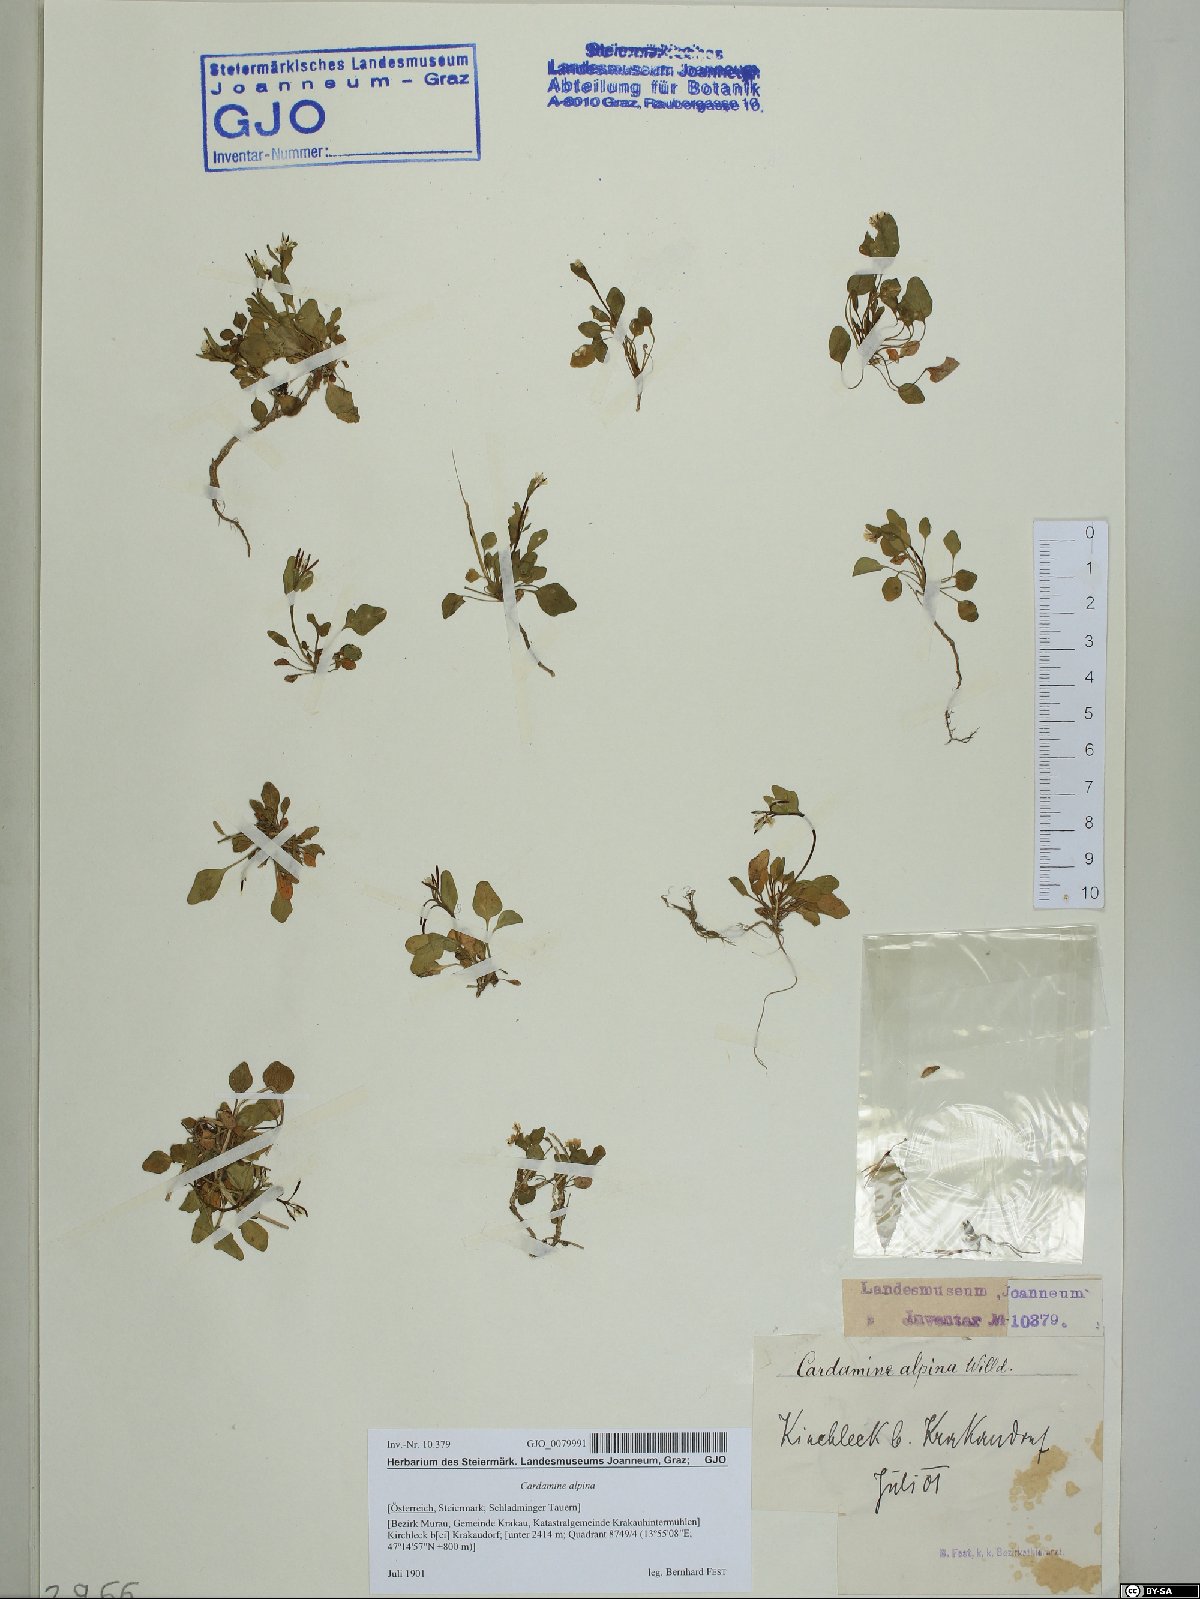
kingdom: Plantae
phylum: Tracheophyta
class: Magnoliopsida
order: Brassicales
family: Brassicaceae
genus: Cardamine
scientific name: Cardamine bellidifolia
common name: Alpine bittercress
